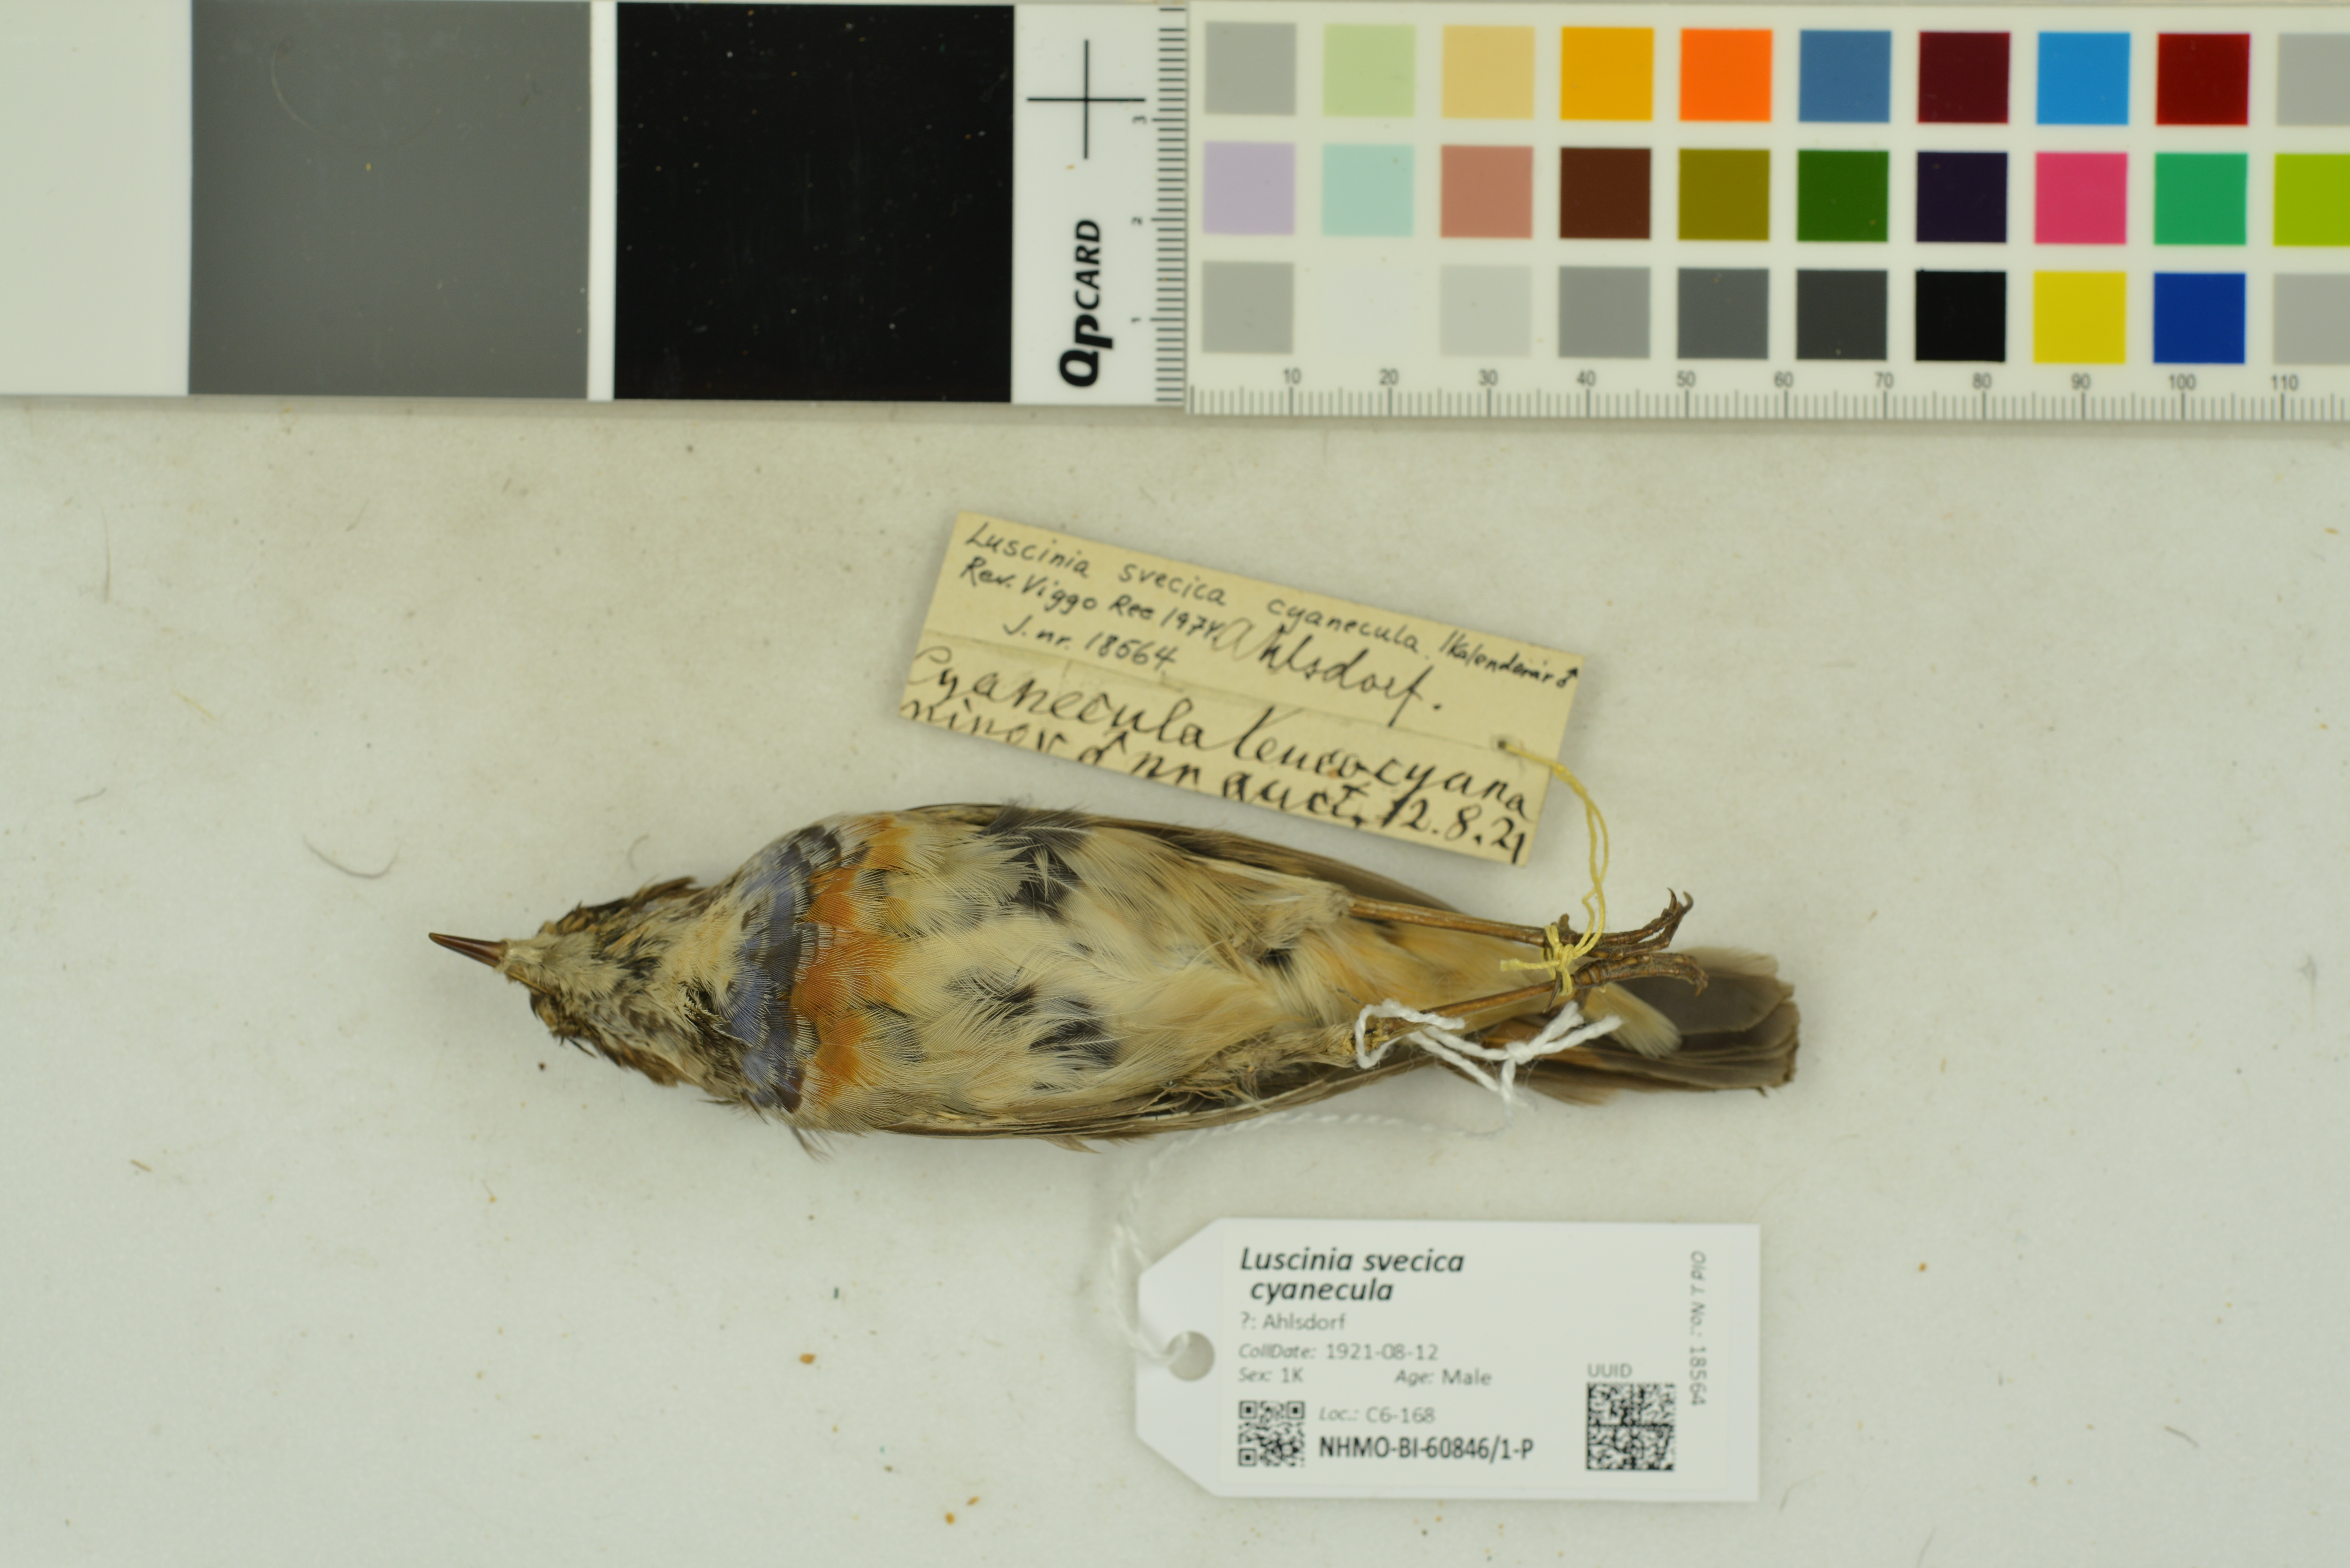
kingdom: Animalia
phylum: Chordata
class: Aves
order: Passeriformes
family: Muscicapidae
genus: Luscinia
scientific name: Luscinia svecica
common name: Bluethroat
